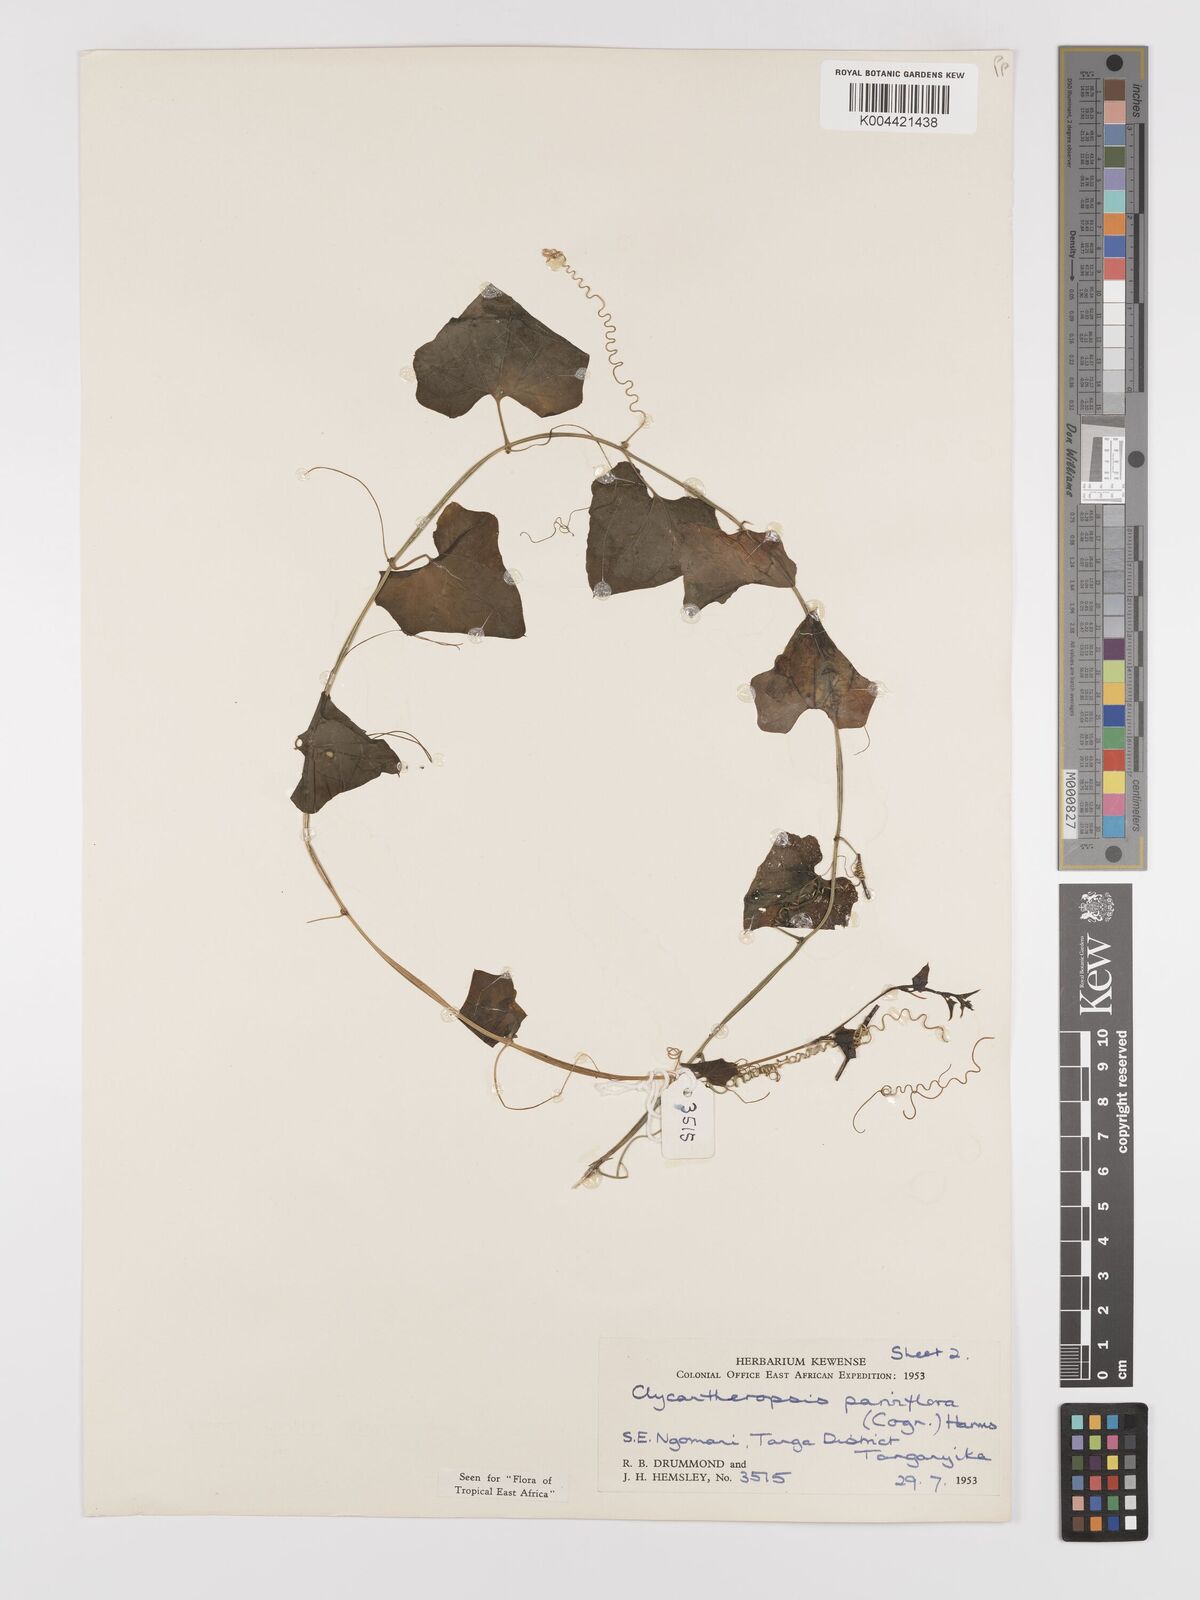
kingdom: Plantae
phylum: Tracheophyta
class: Magnoliopsida
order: Cucurbitales
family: Cucurbitaceae
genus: Cyclantheropsis
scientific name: Cyclantheropsis parviflora
